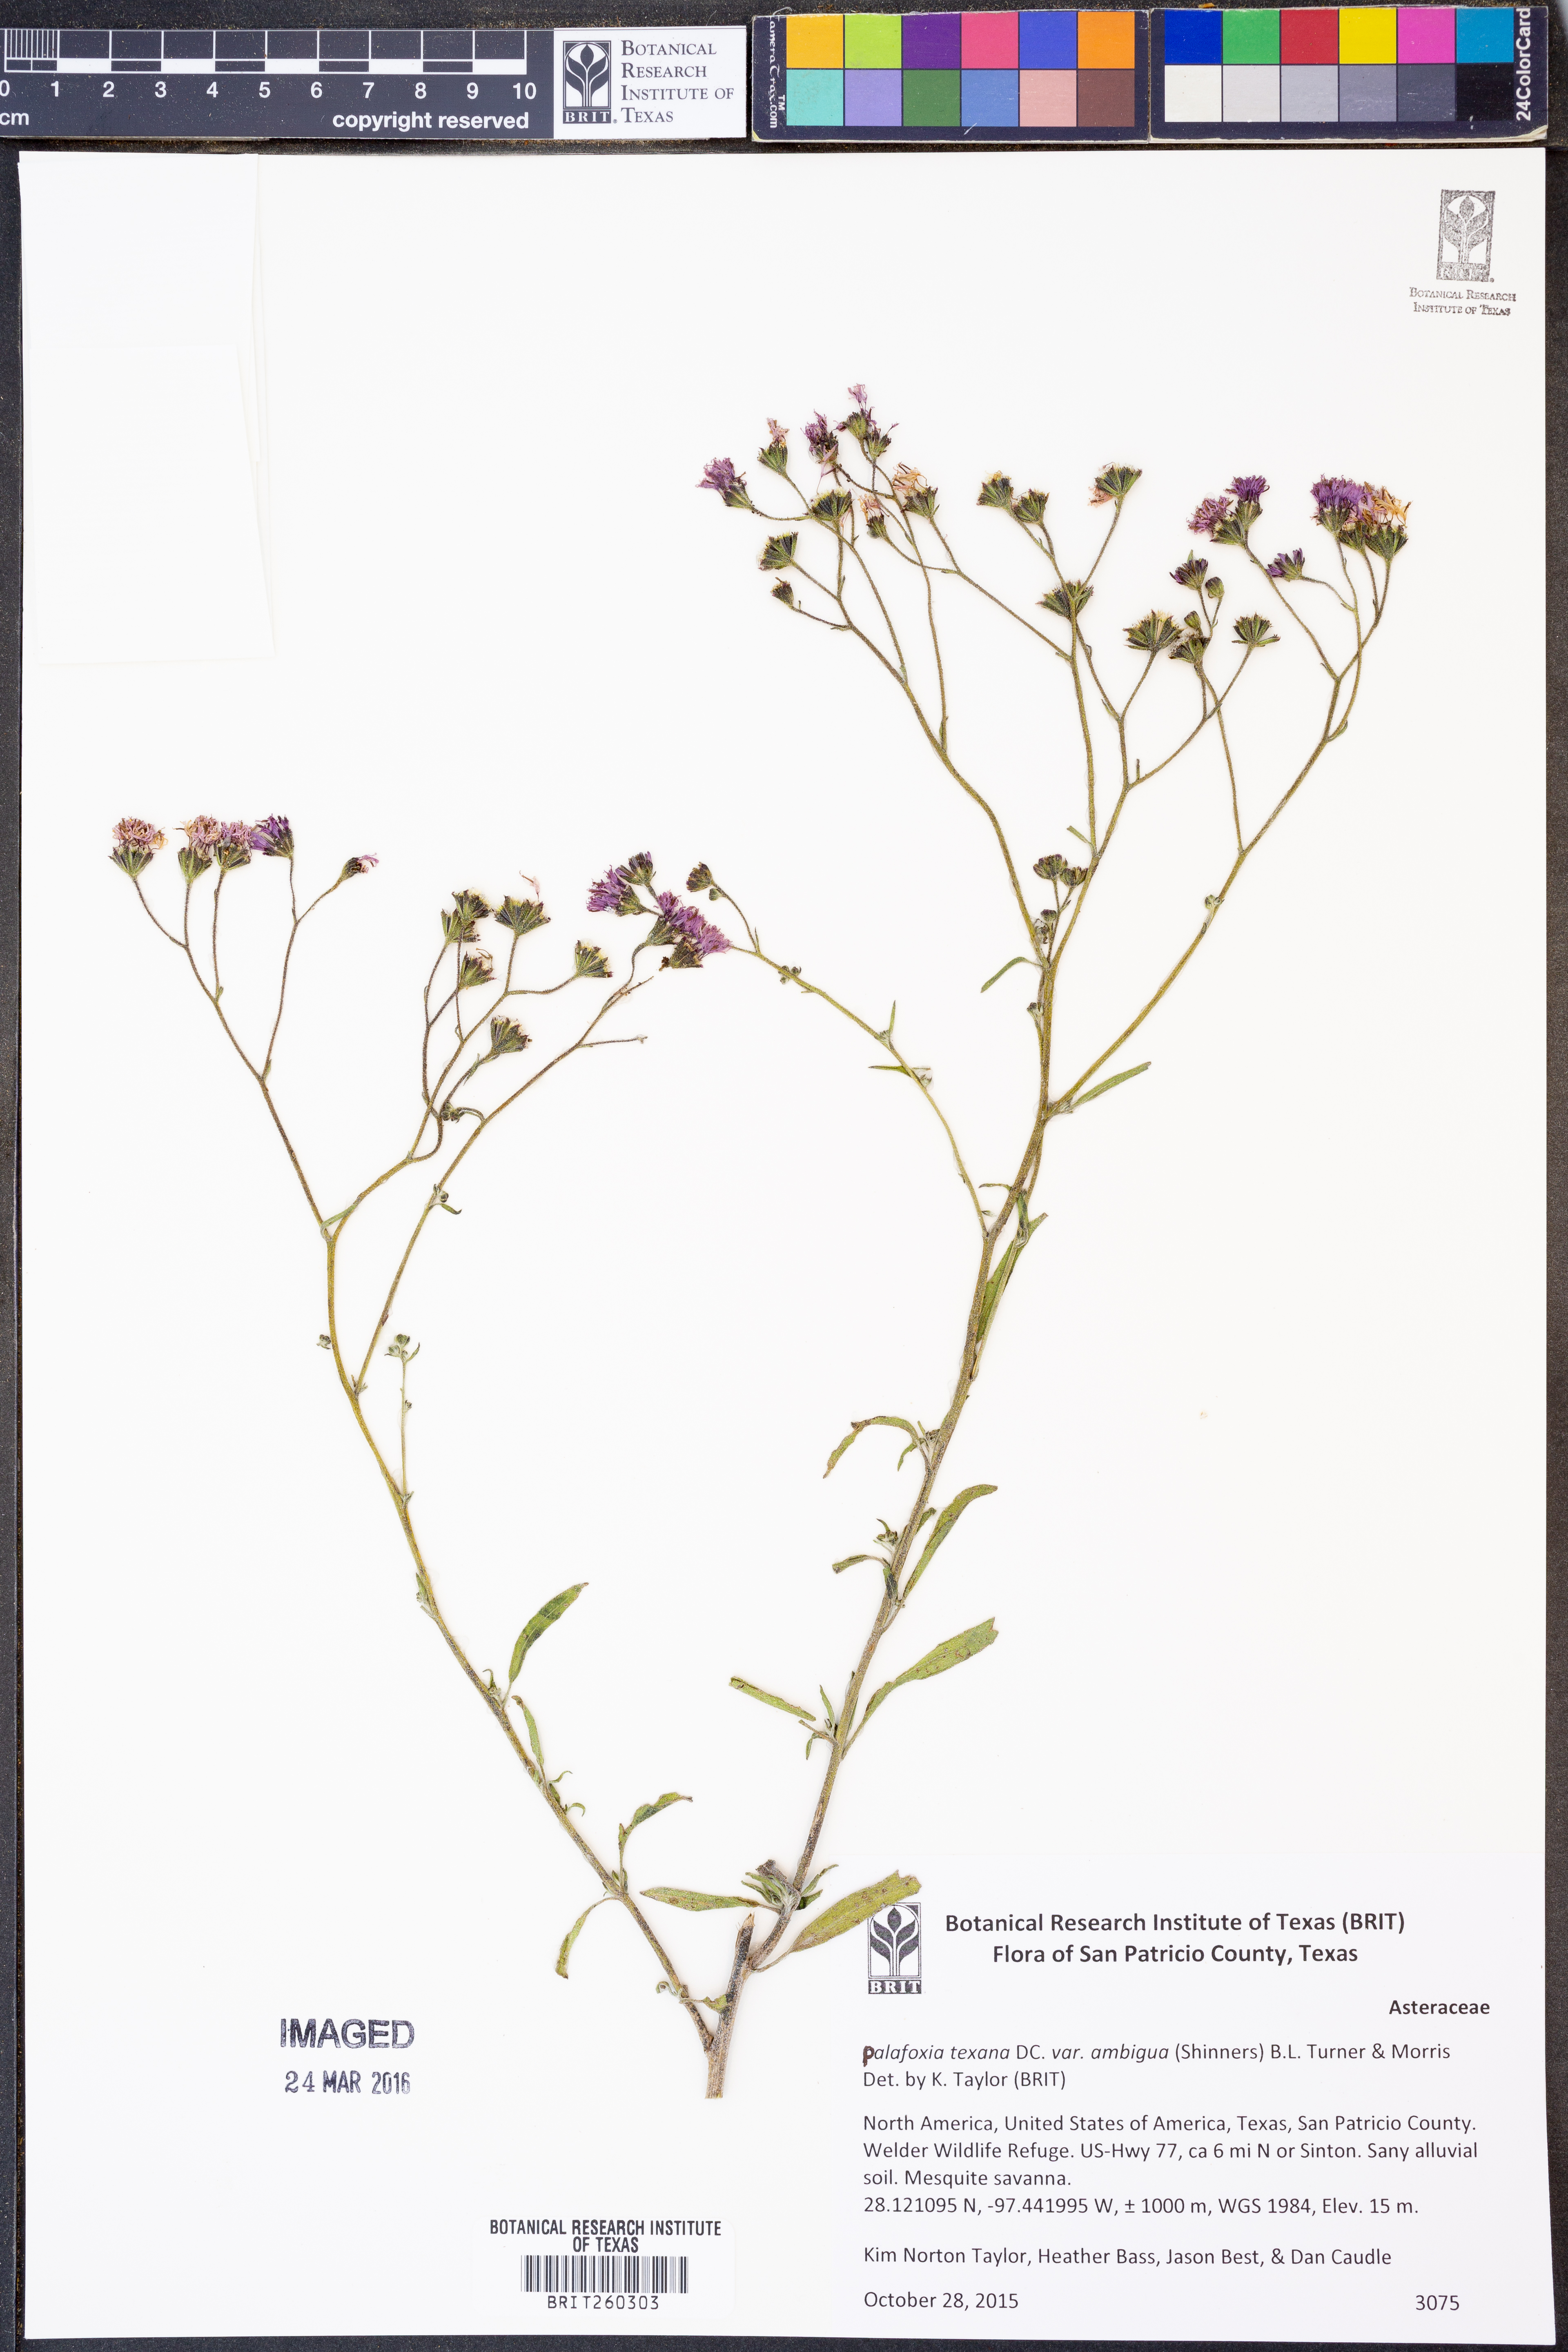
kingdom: Plantae
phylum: Tracheophyta
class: Magnoliopsida
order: Asterales
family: Asteraceae
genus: Palafoxia
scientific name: Palafoxia texana
